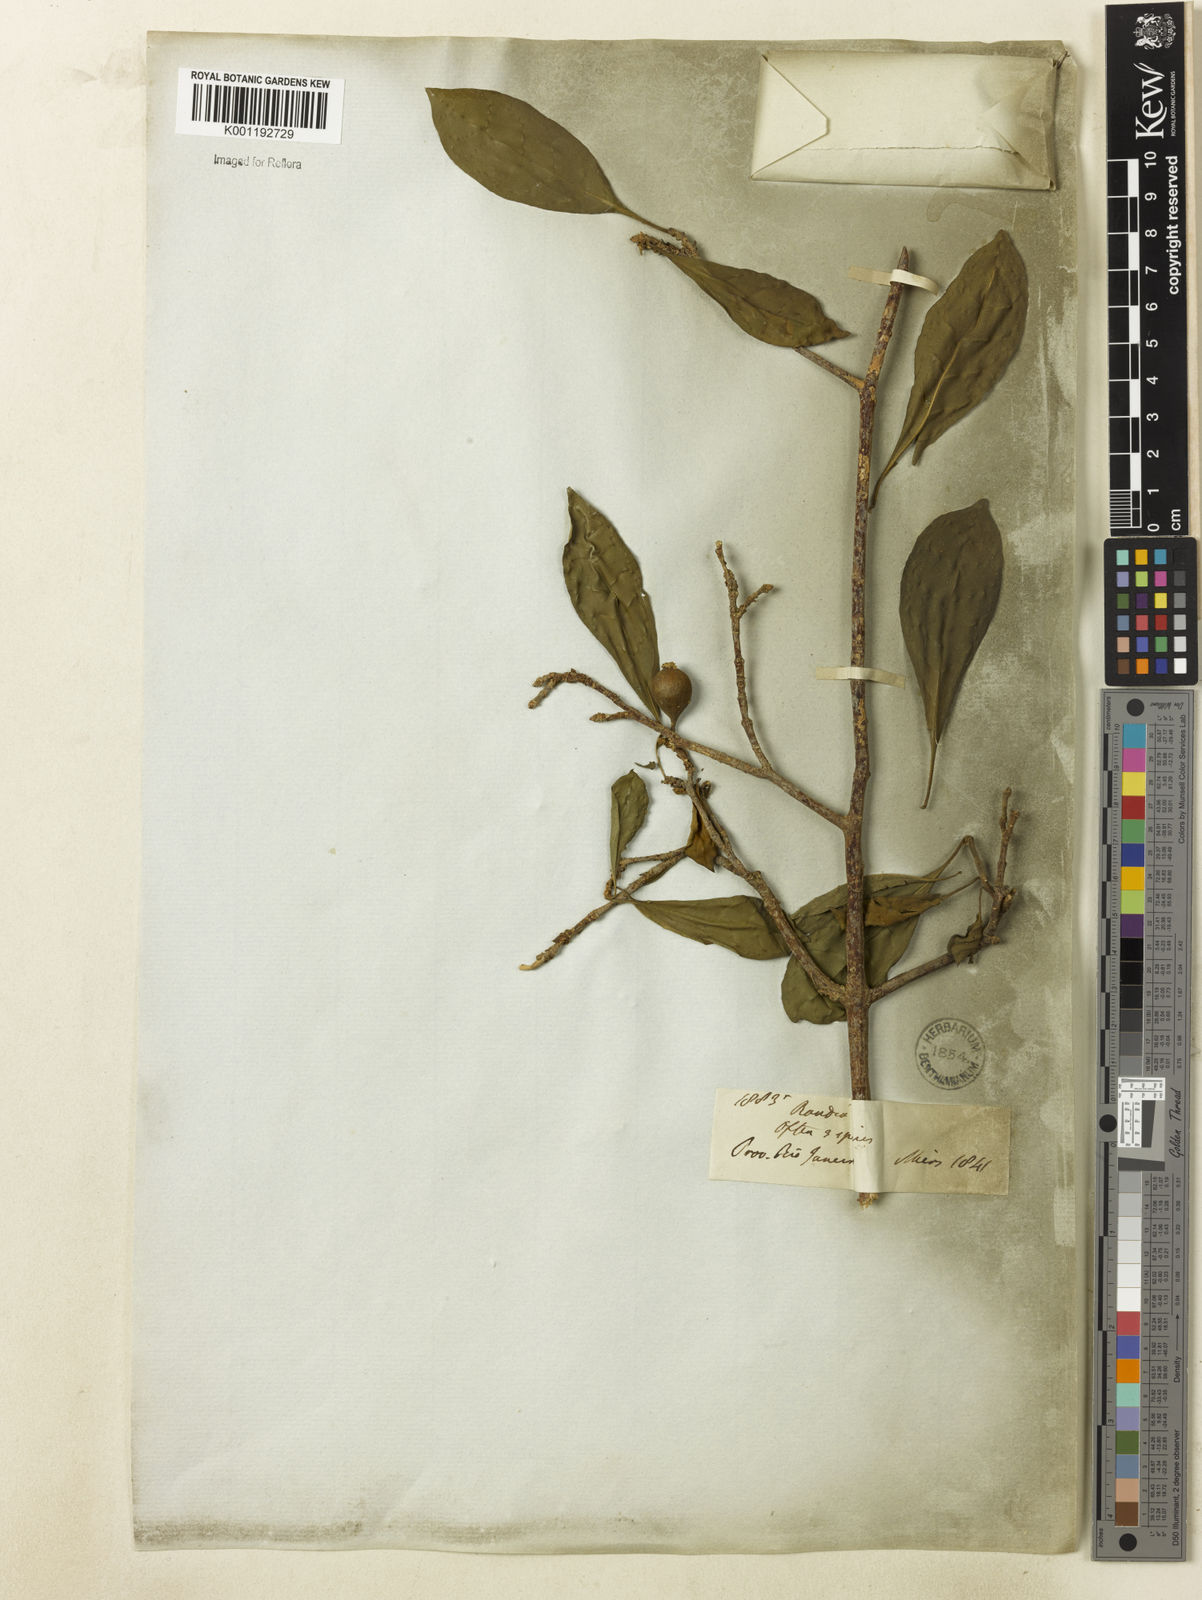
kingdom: Plantae
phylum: Tracheophyta
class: Magnoliopsida
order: Gentianales
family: Rubiaceae
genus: Randia
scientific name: Randia
